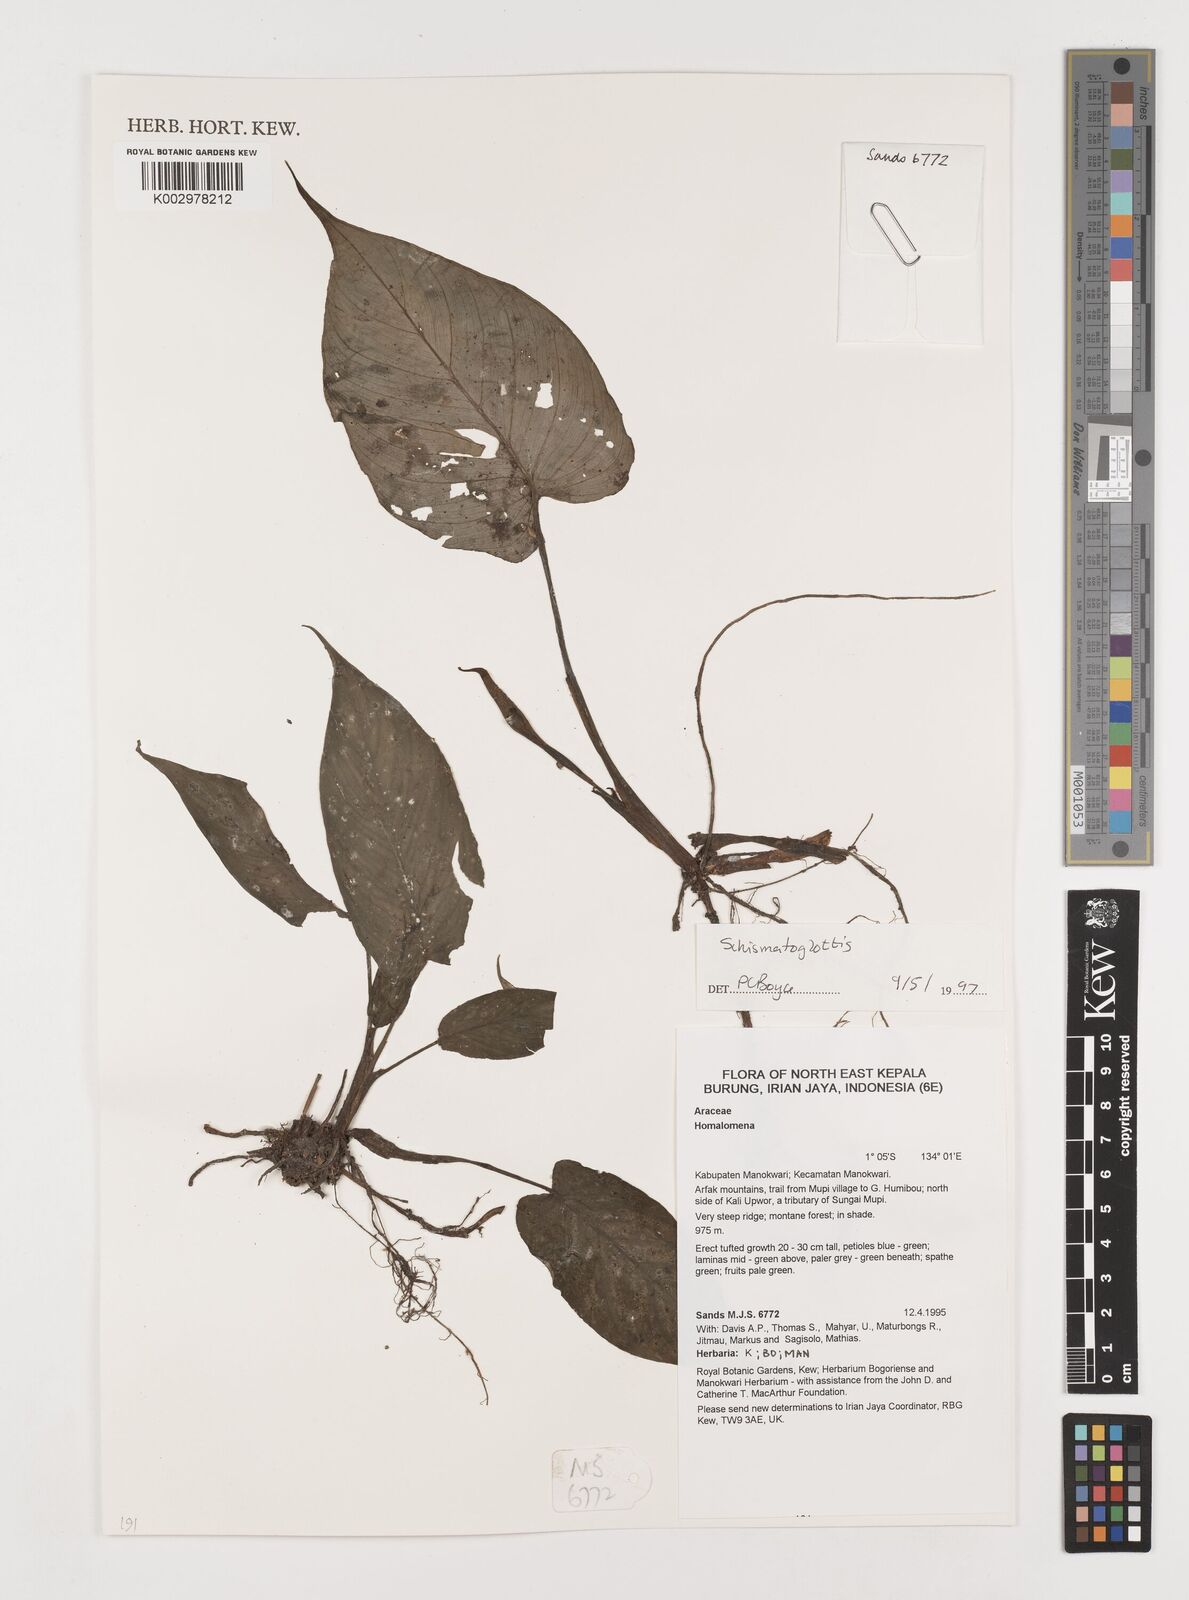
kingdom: Plantae
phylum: Tracheophyta
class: Liliopsida
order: Alismatales
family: Araceae
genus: Schismatoglottis
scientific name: Schismatoglottis calyptrata
